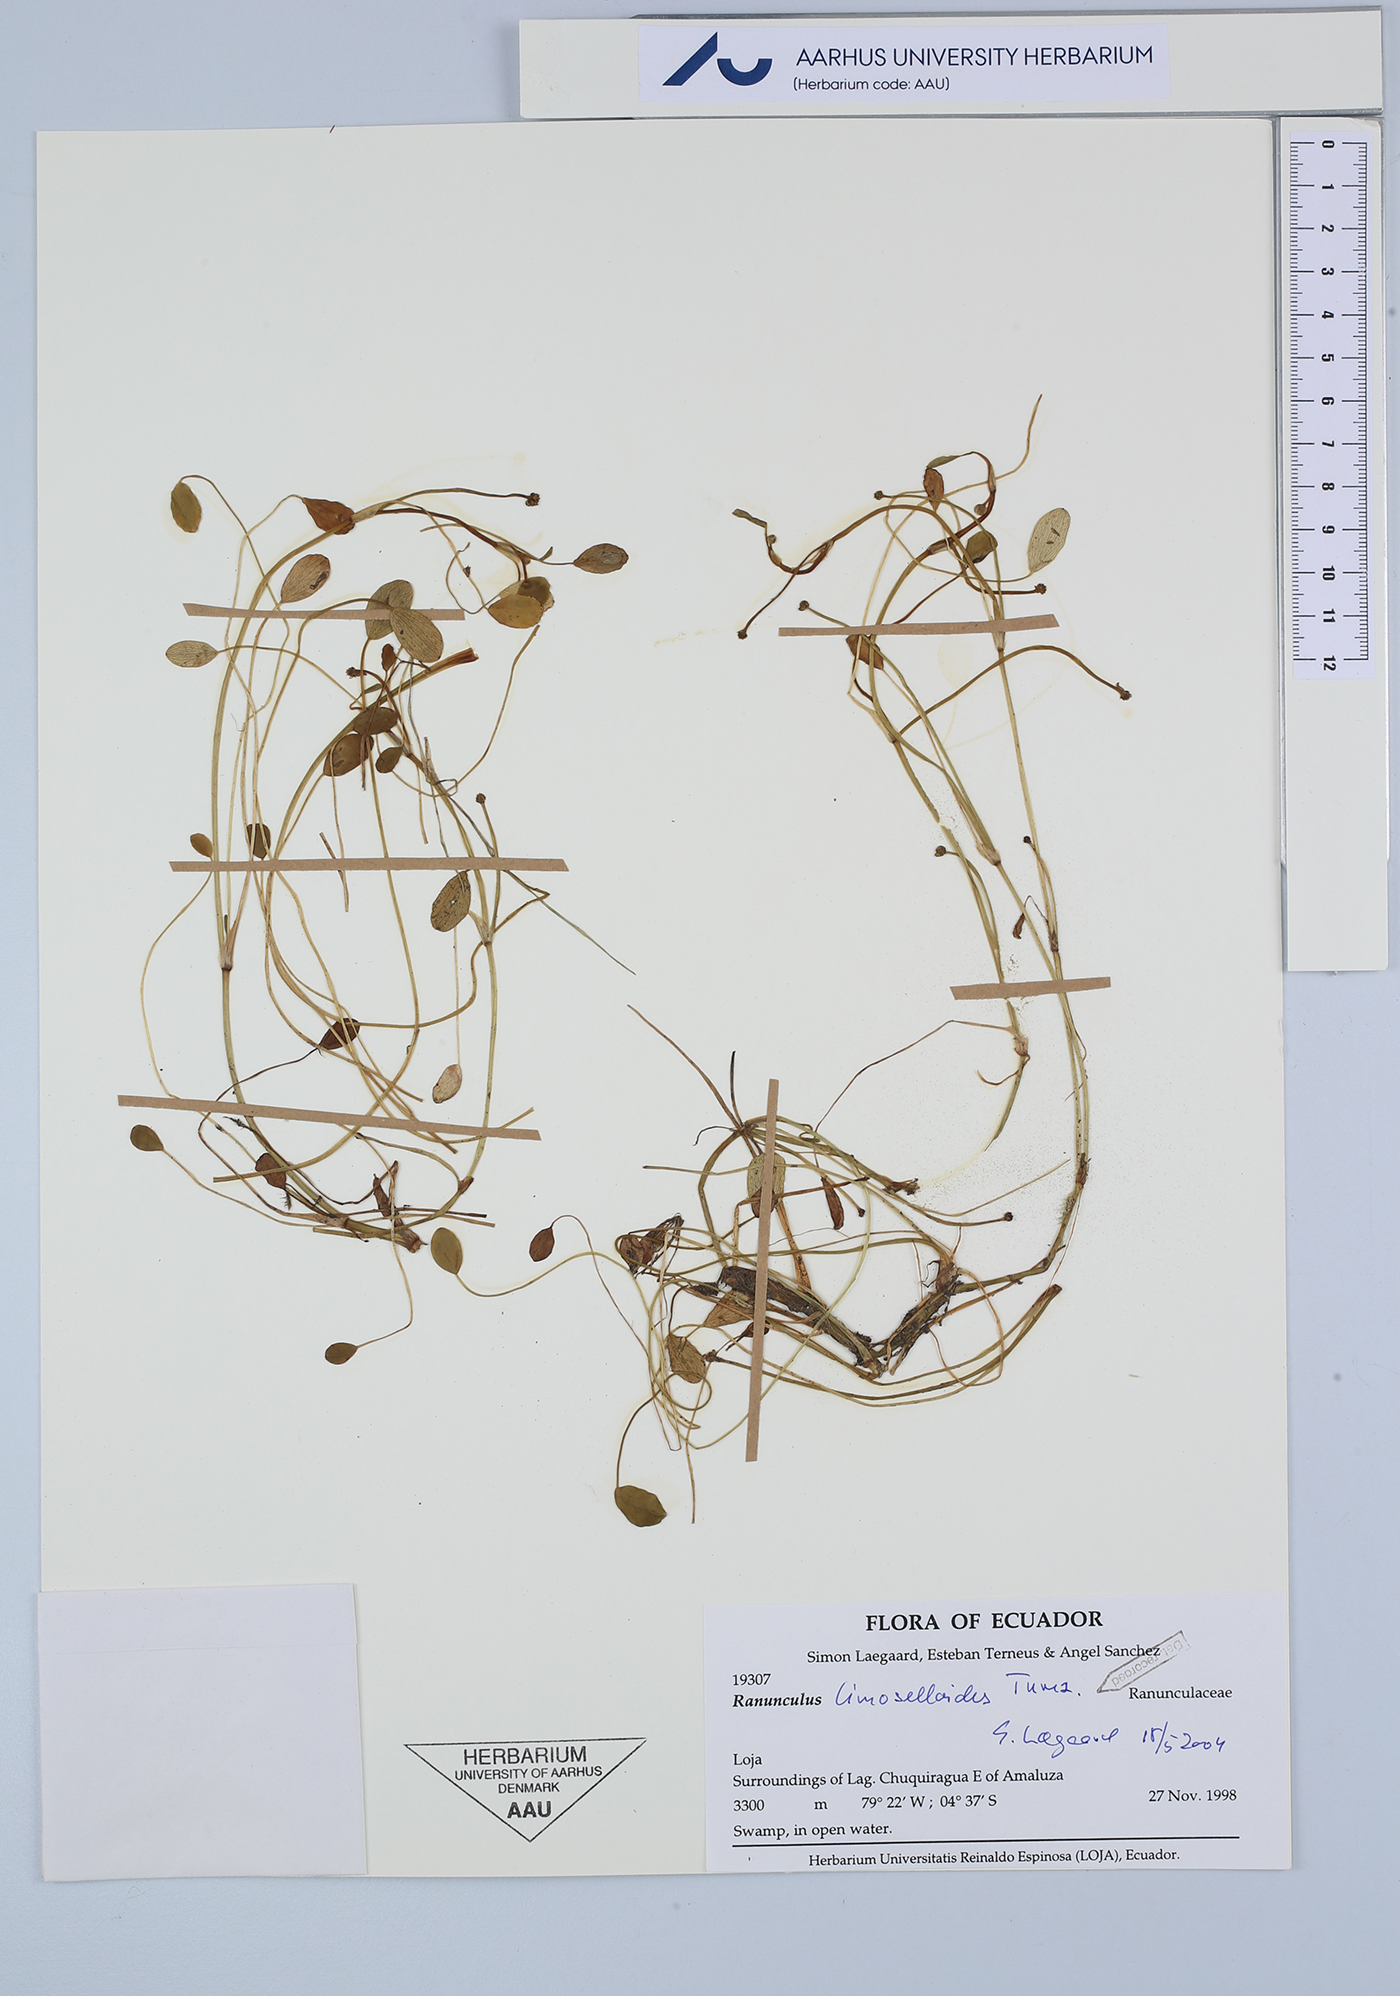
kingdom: Plantae
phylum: Tracheophyta
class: Magnoliopsida
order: Ranunculales
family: Ranunculaceae
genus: Ranunculus
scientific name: Ranunculus limoselloides
